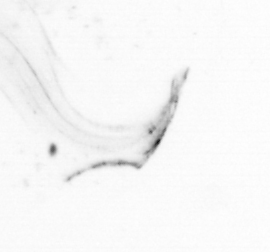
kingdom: Animalia
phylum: Chordata
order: Copelata
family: Fritillariidae
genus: Appendicularia
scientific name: Appendicularia
